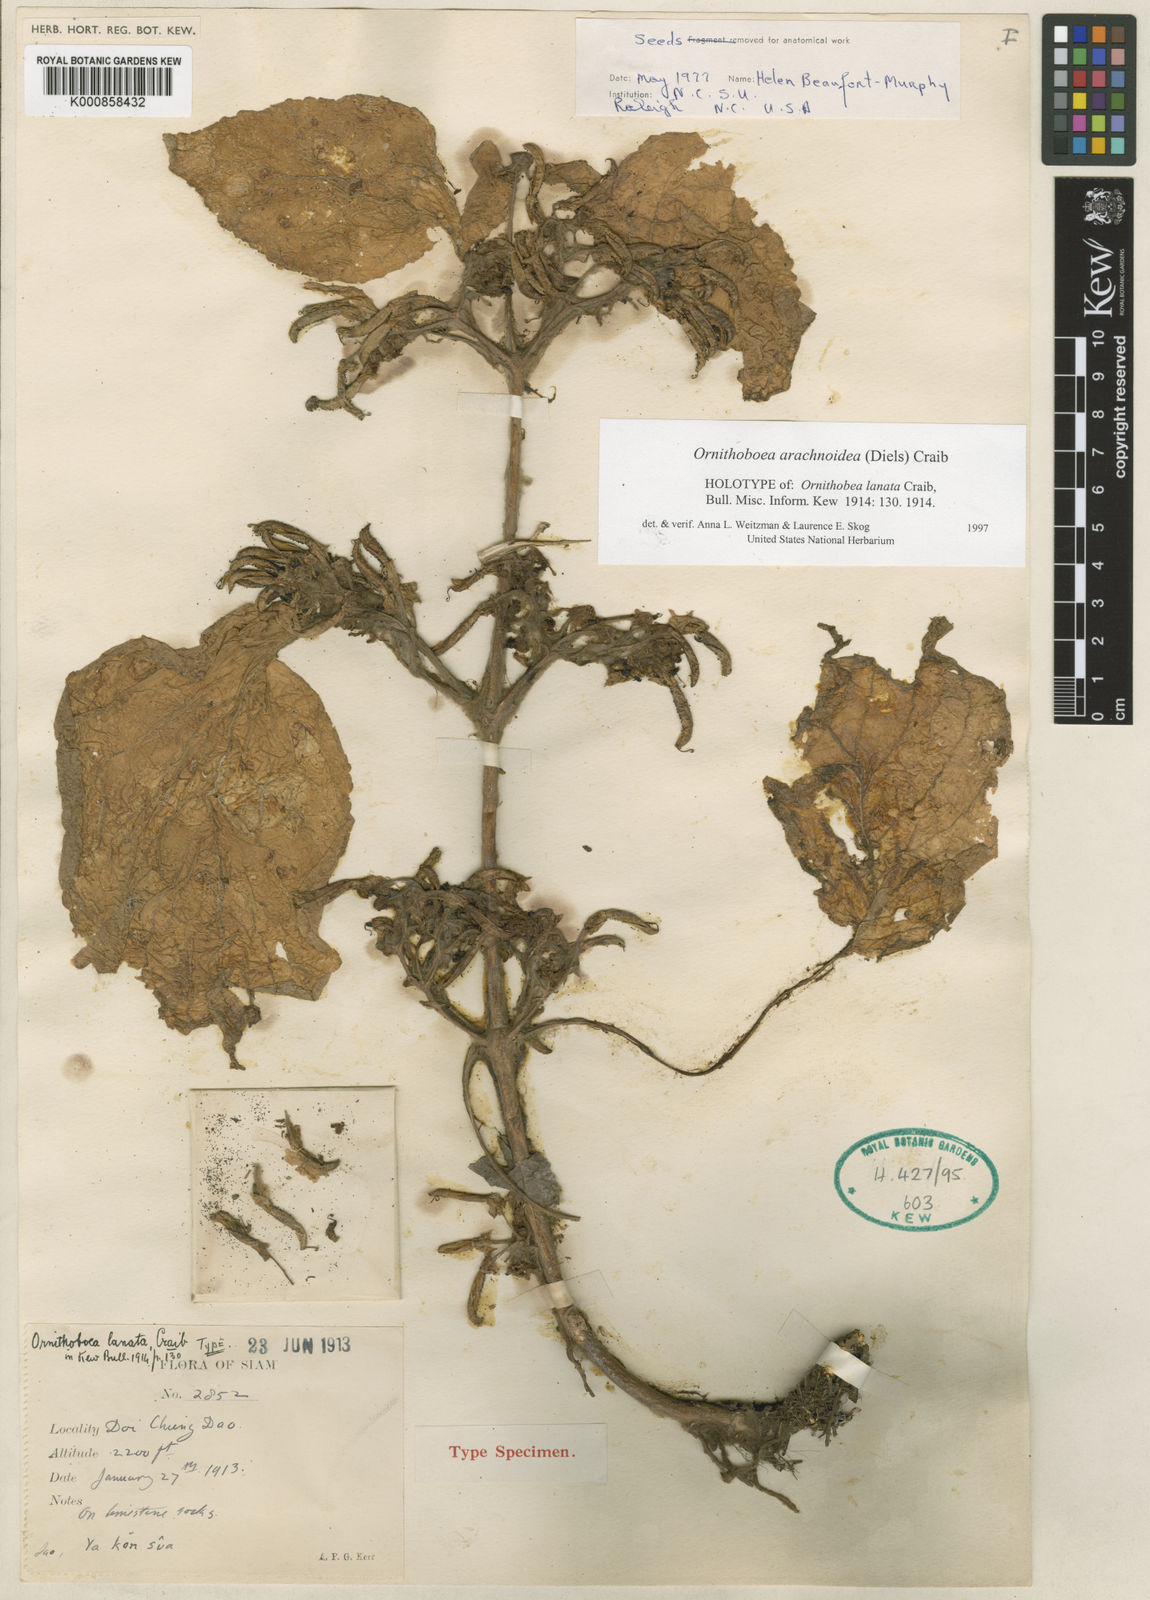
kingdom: Plantae
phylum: Tracheophyta
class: Magnoliopsida
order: Lamiales
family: Gesneriaceae
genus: Ornithoboea
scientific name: Ornithoboea arachnoidea
